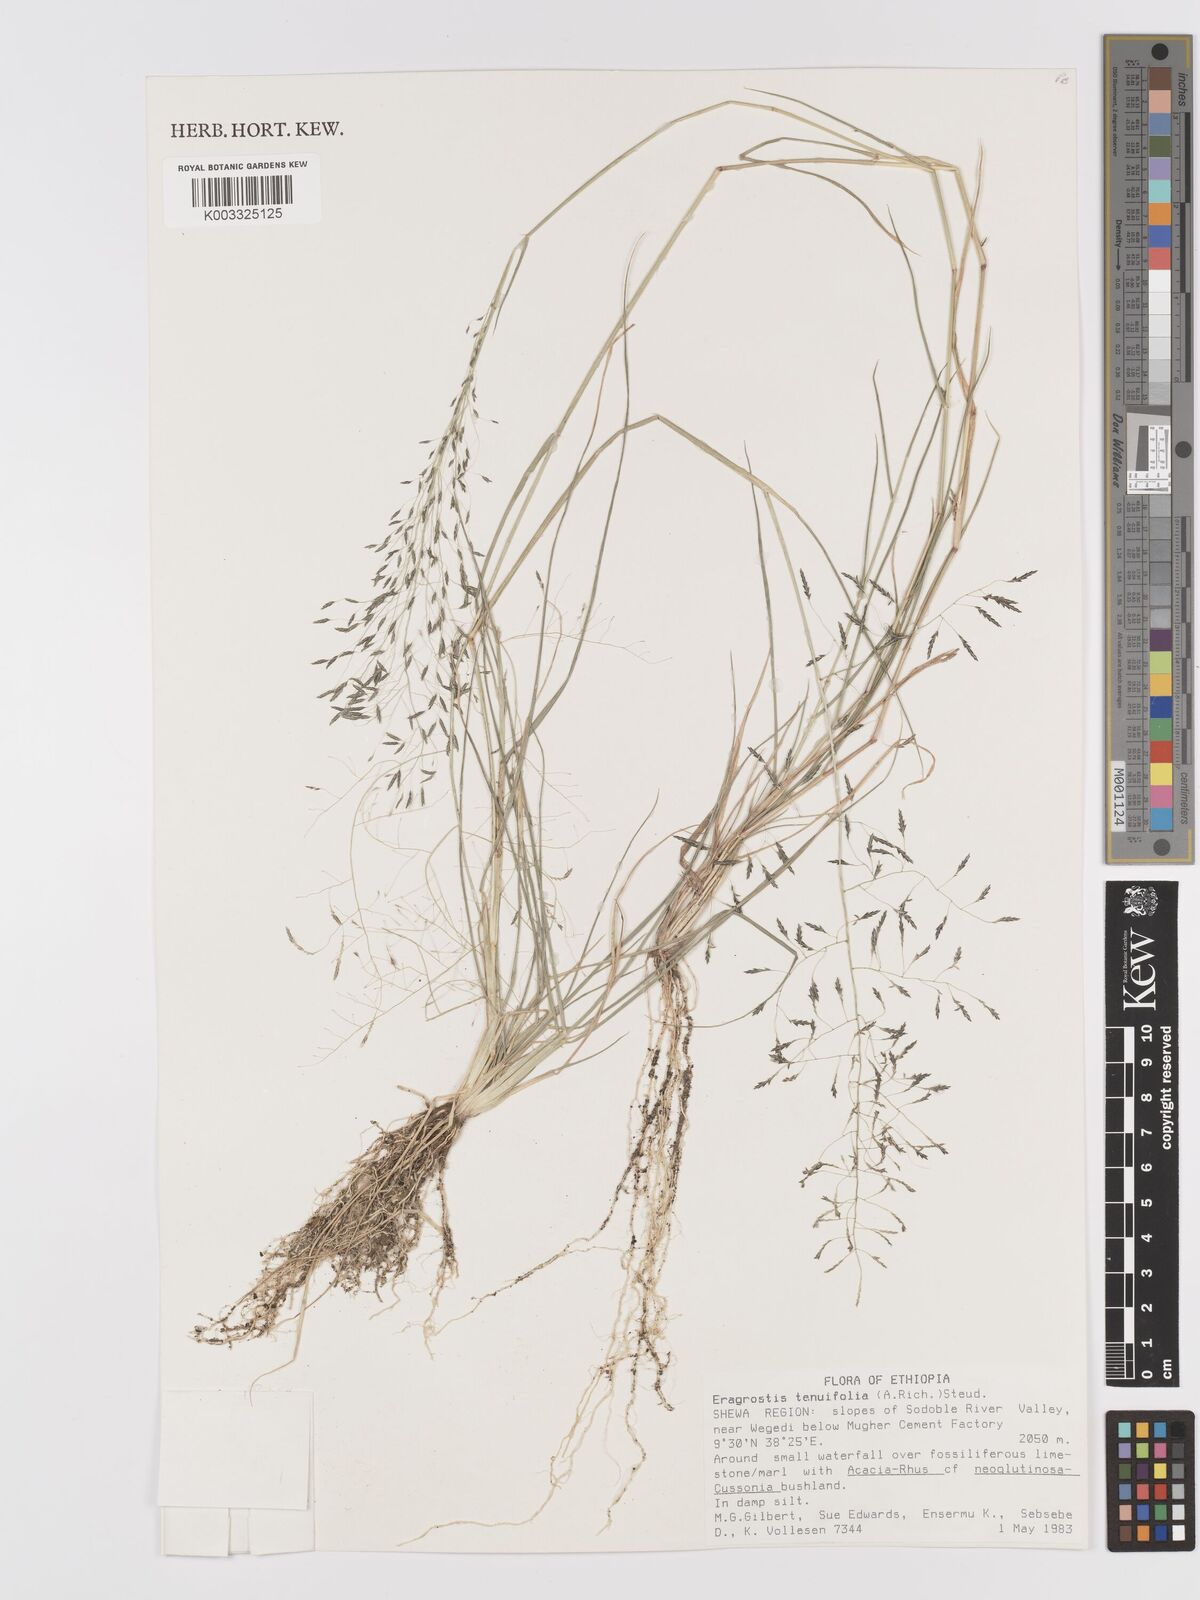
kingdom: Plantae
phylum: Tracheophyta
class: Liliopsida
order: Poales
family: Poaceae
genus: Eragrostis
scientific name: Eragrostis tenuifolia
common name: Elastic grass
